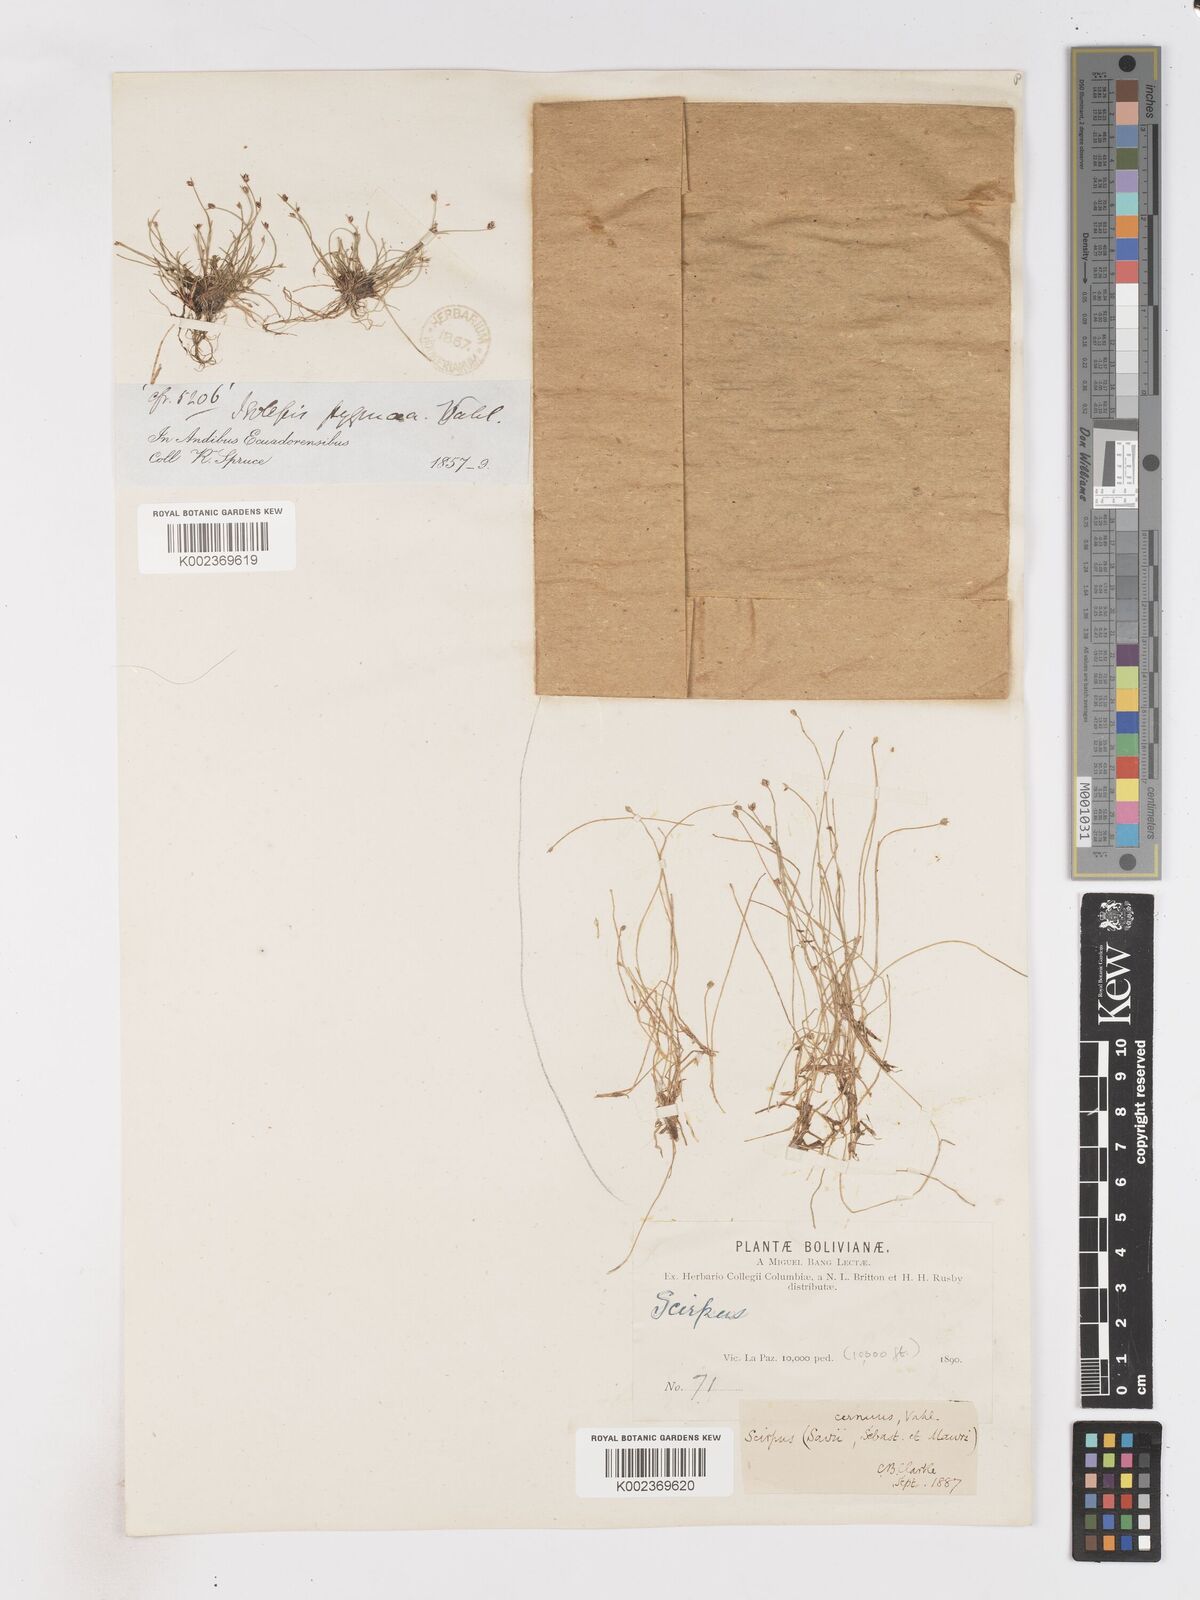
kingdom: Plantae
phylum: Tracheophyta
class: Liliopsida
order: Poales
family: Cyperaceae
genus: Isolepis
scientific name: Isolepis cernua
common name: Slender club-rush
